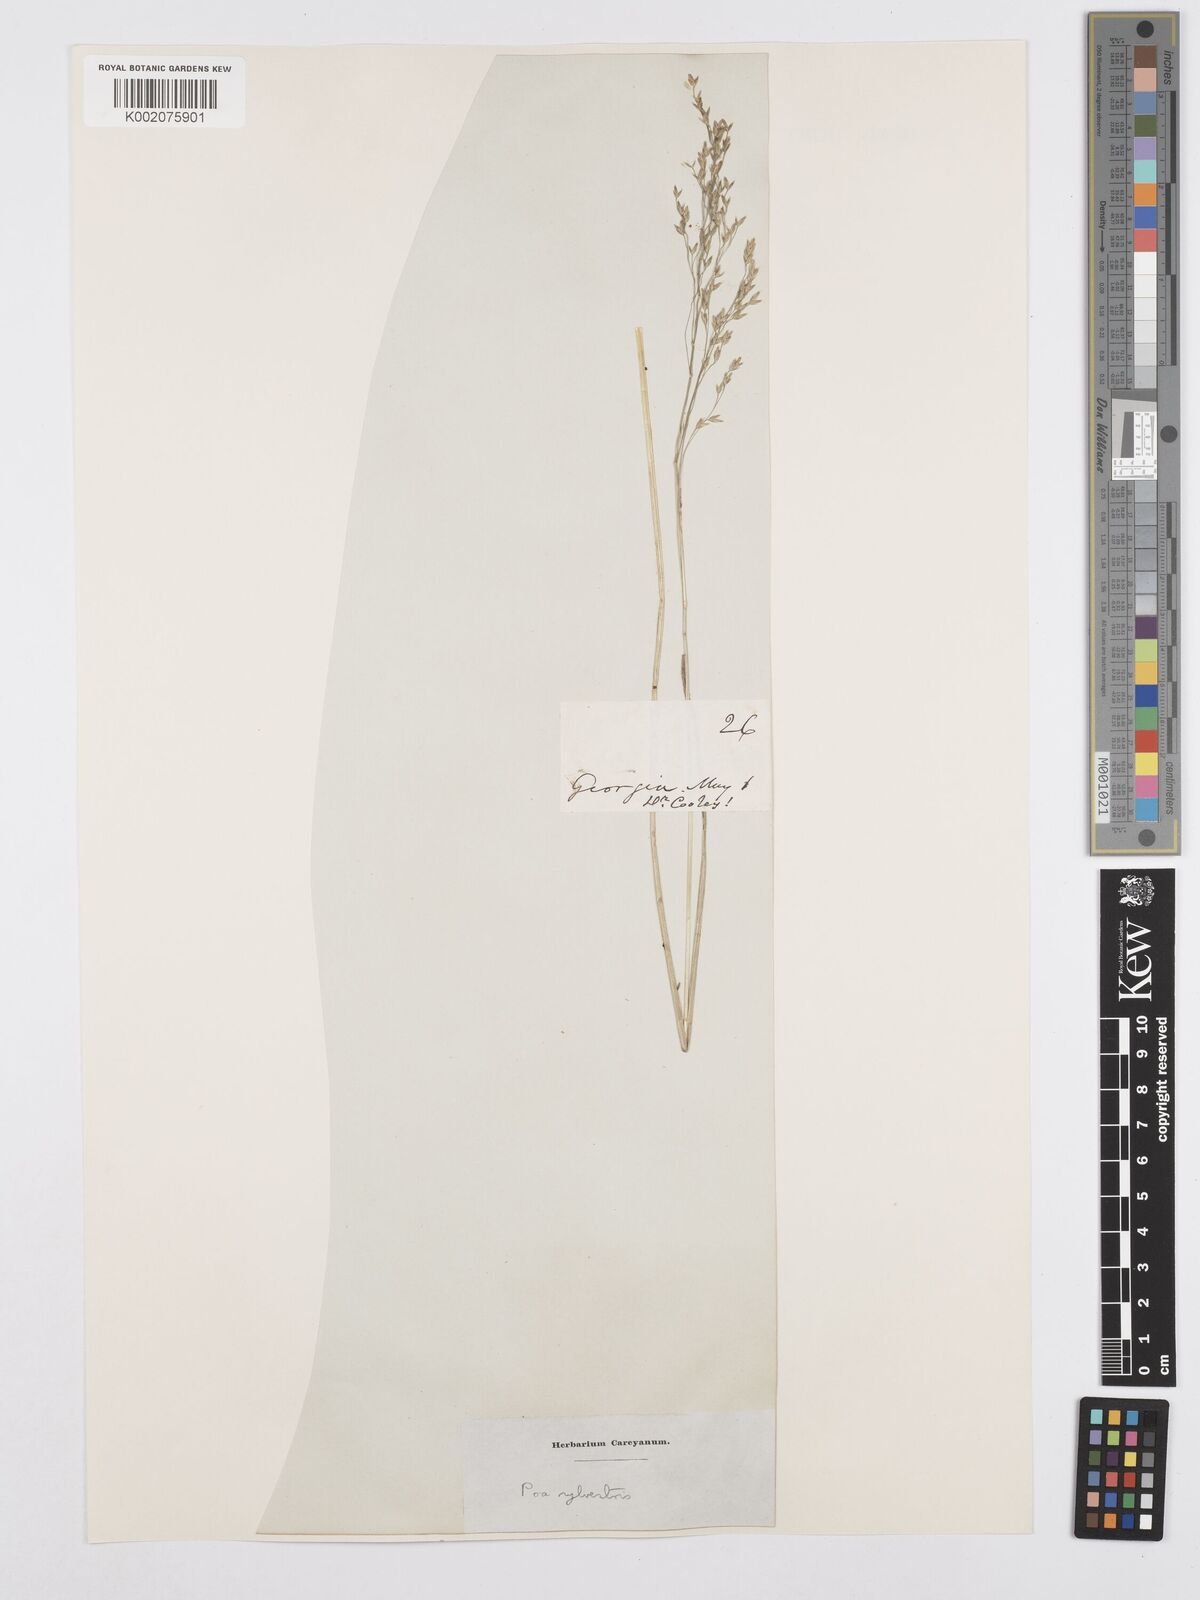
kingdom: Plantae
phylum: Tracheophyta
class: Liliopsida
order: Poales
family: Poaceae
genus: Poa
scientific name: Poa sylvestris
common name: North american woodland bluegrass
